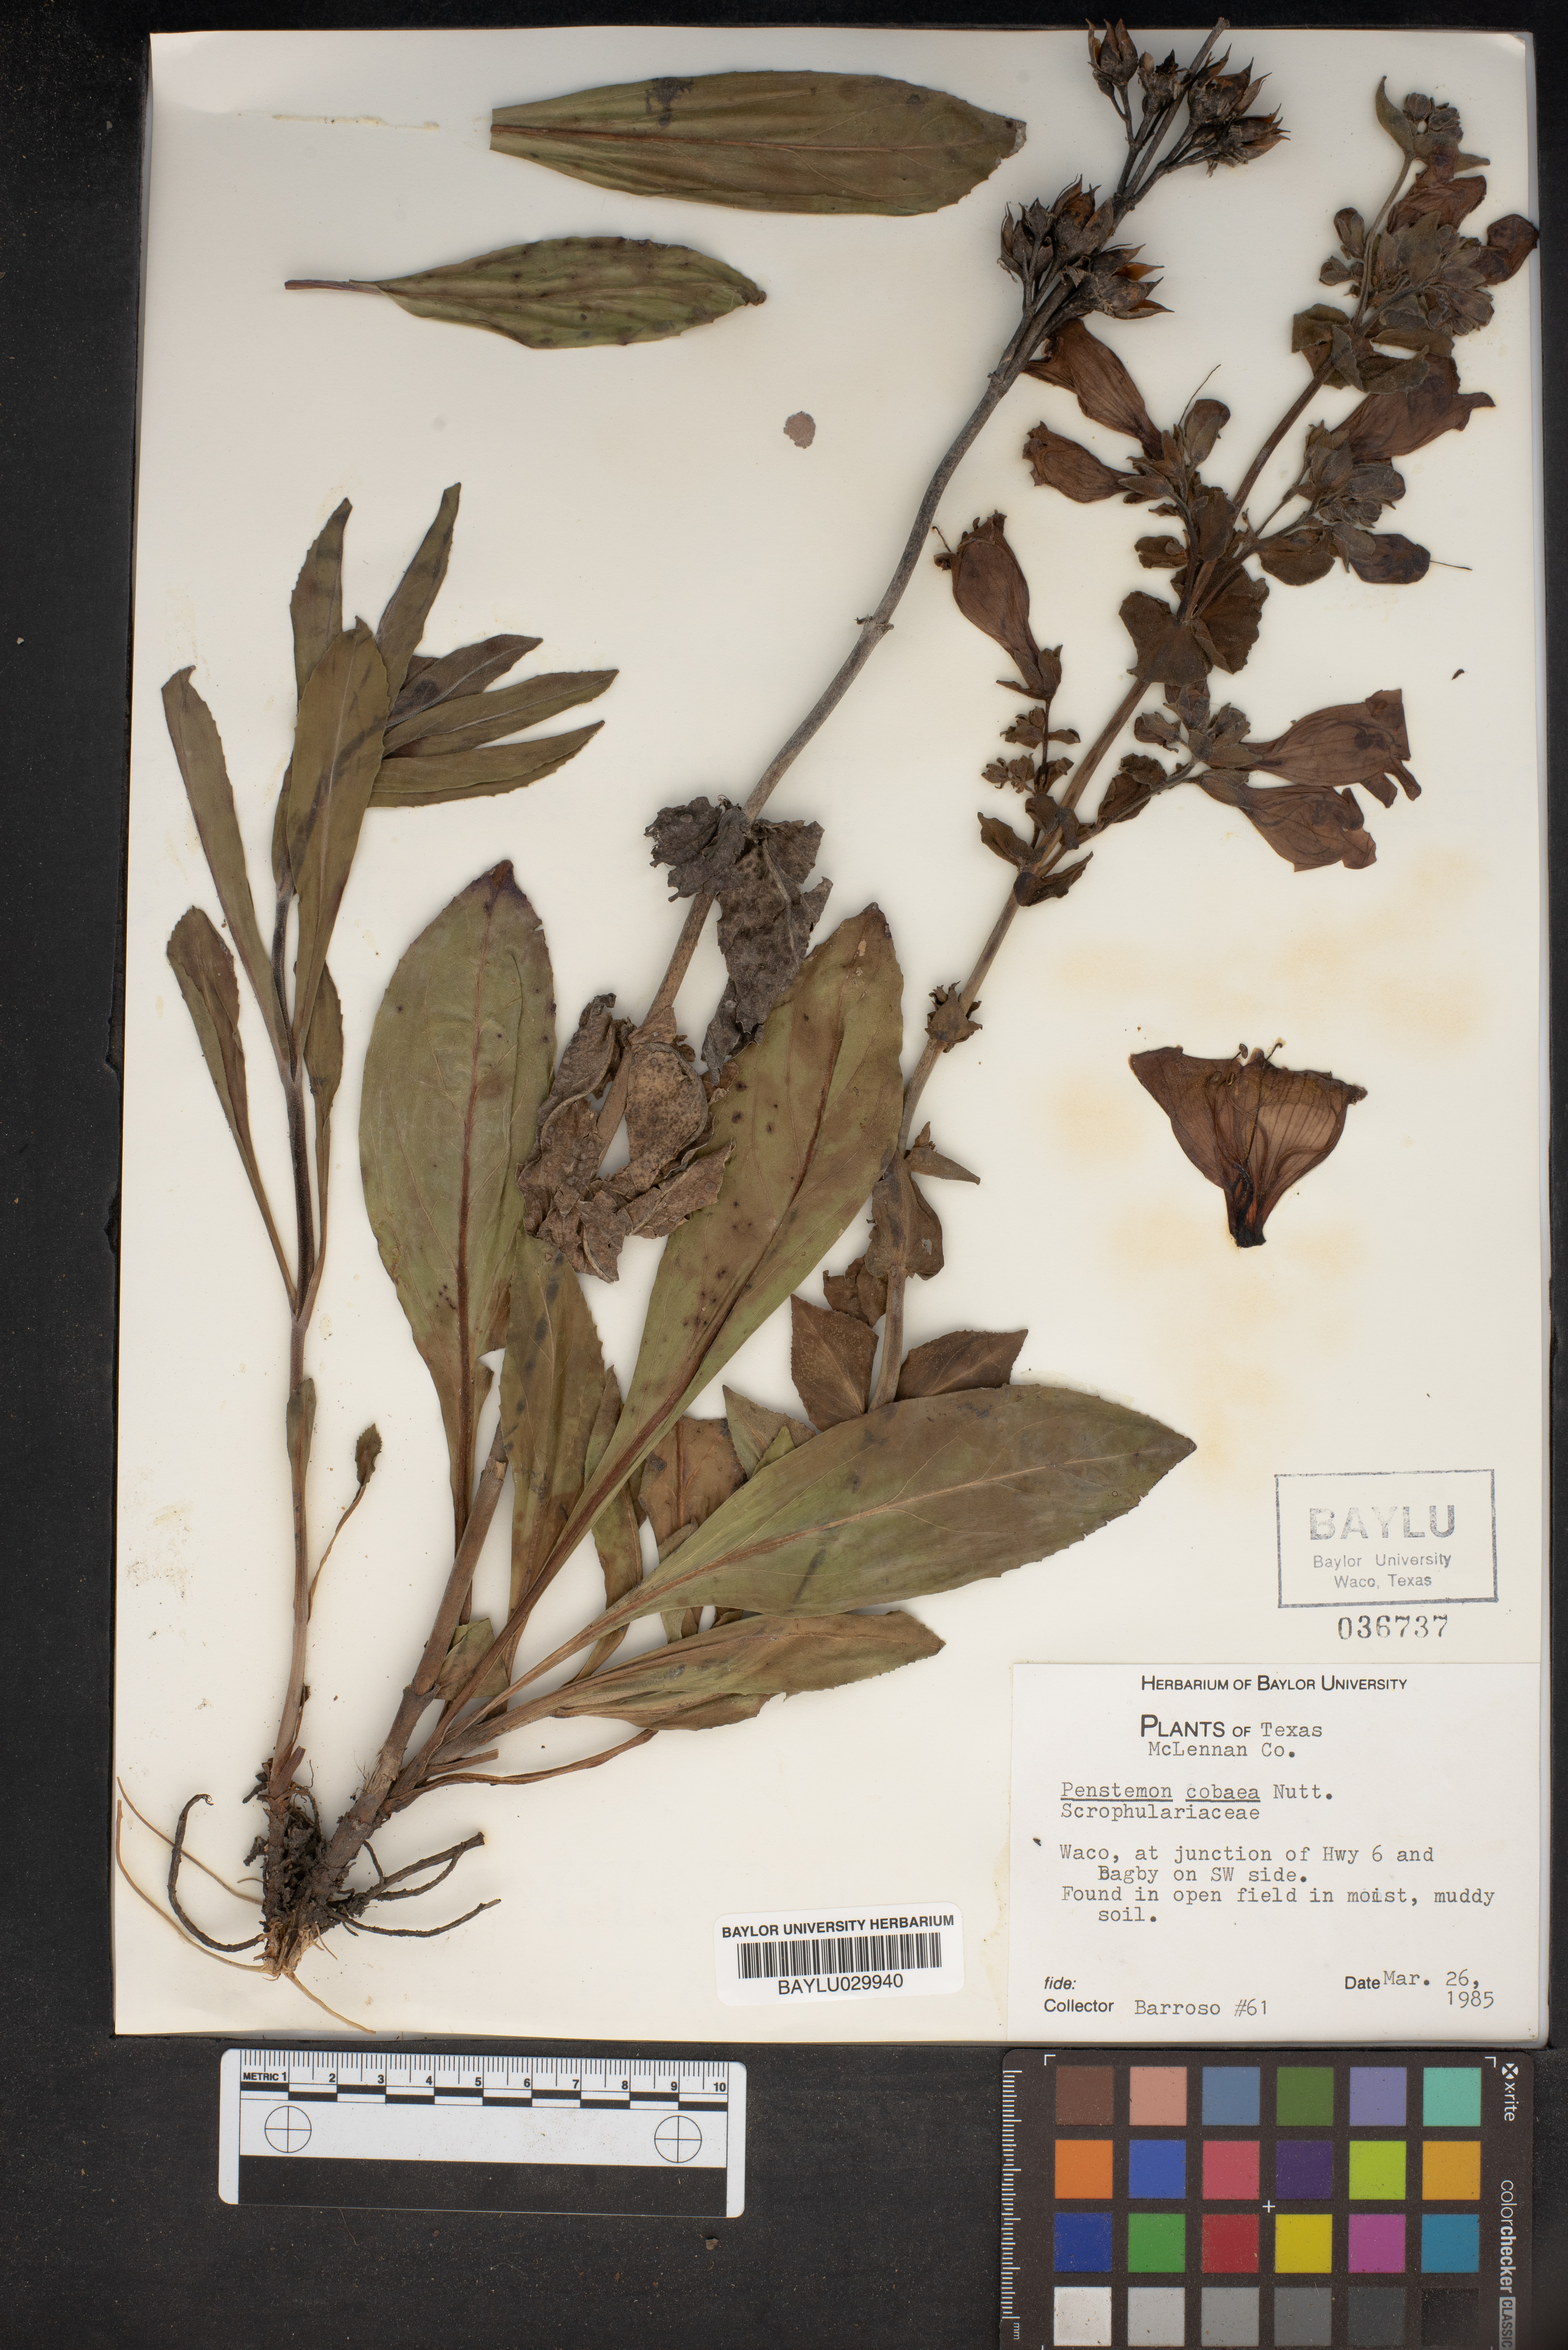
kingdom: Plantae
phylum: Tracheophyta
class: Magnoliopsida
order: Lamiales
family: Plantaginaceae
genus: Penstemon
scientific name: Penstemon cobaea
